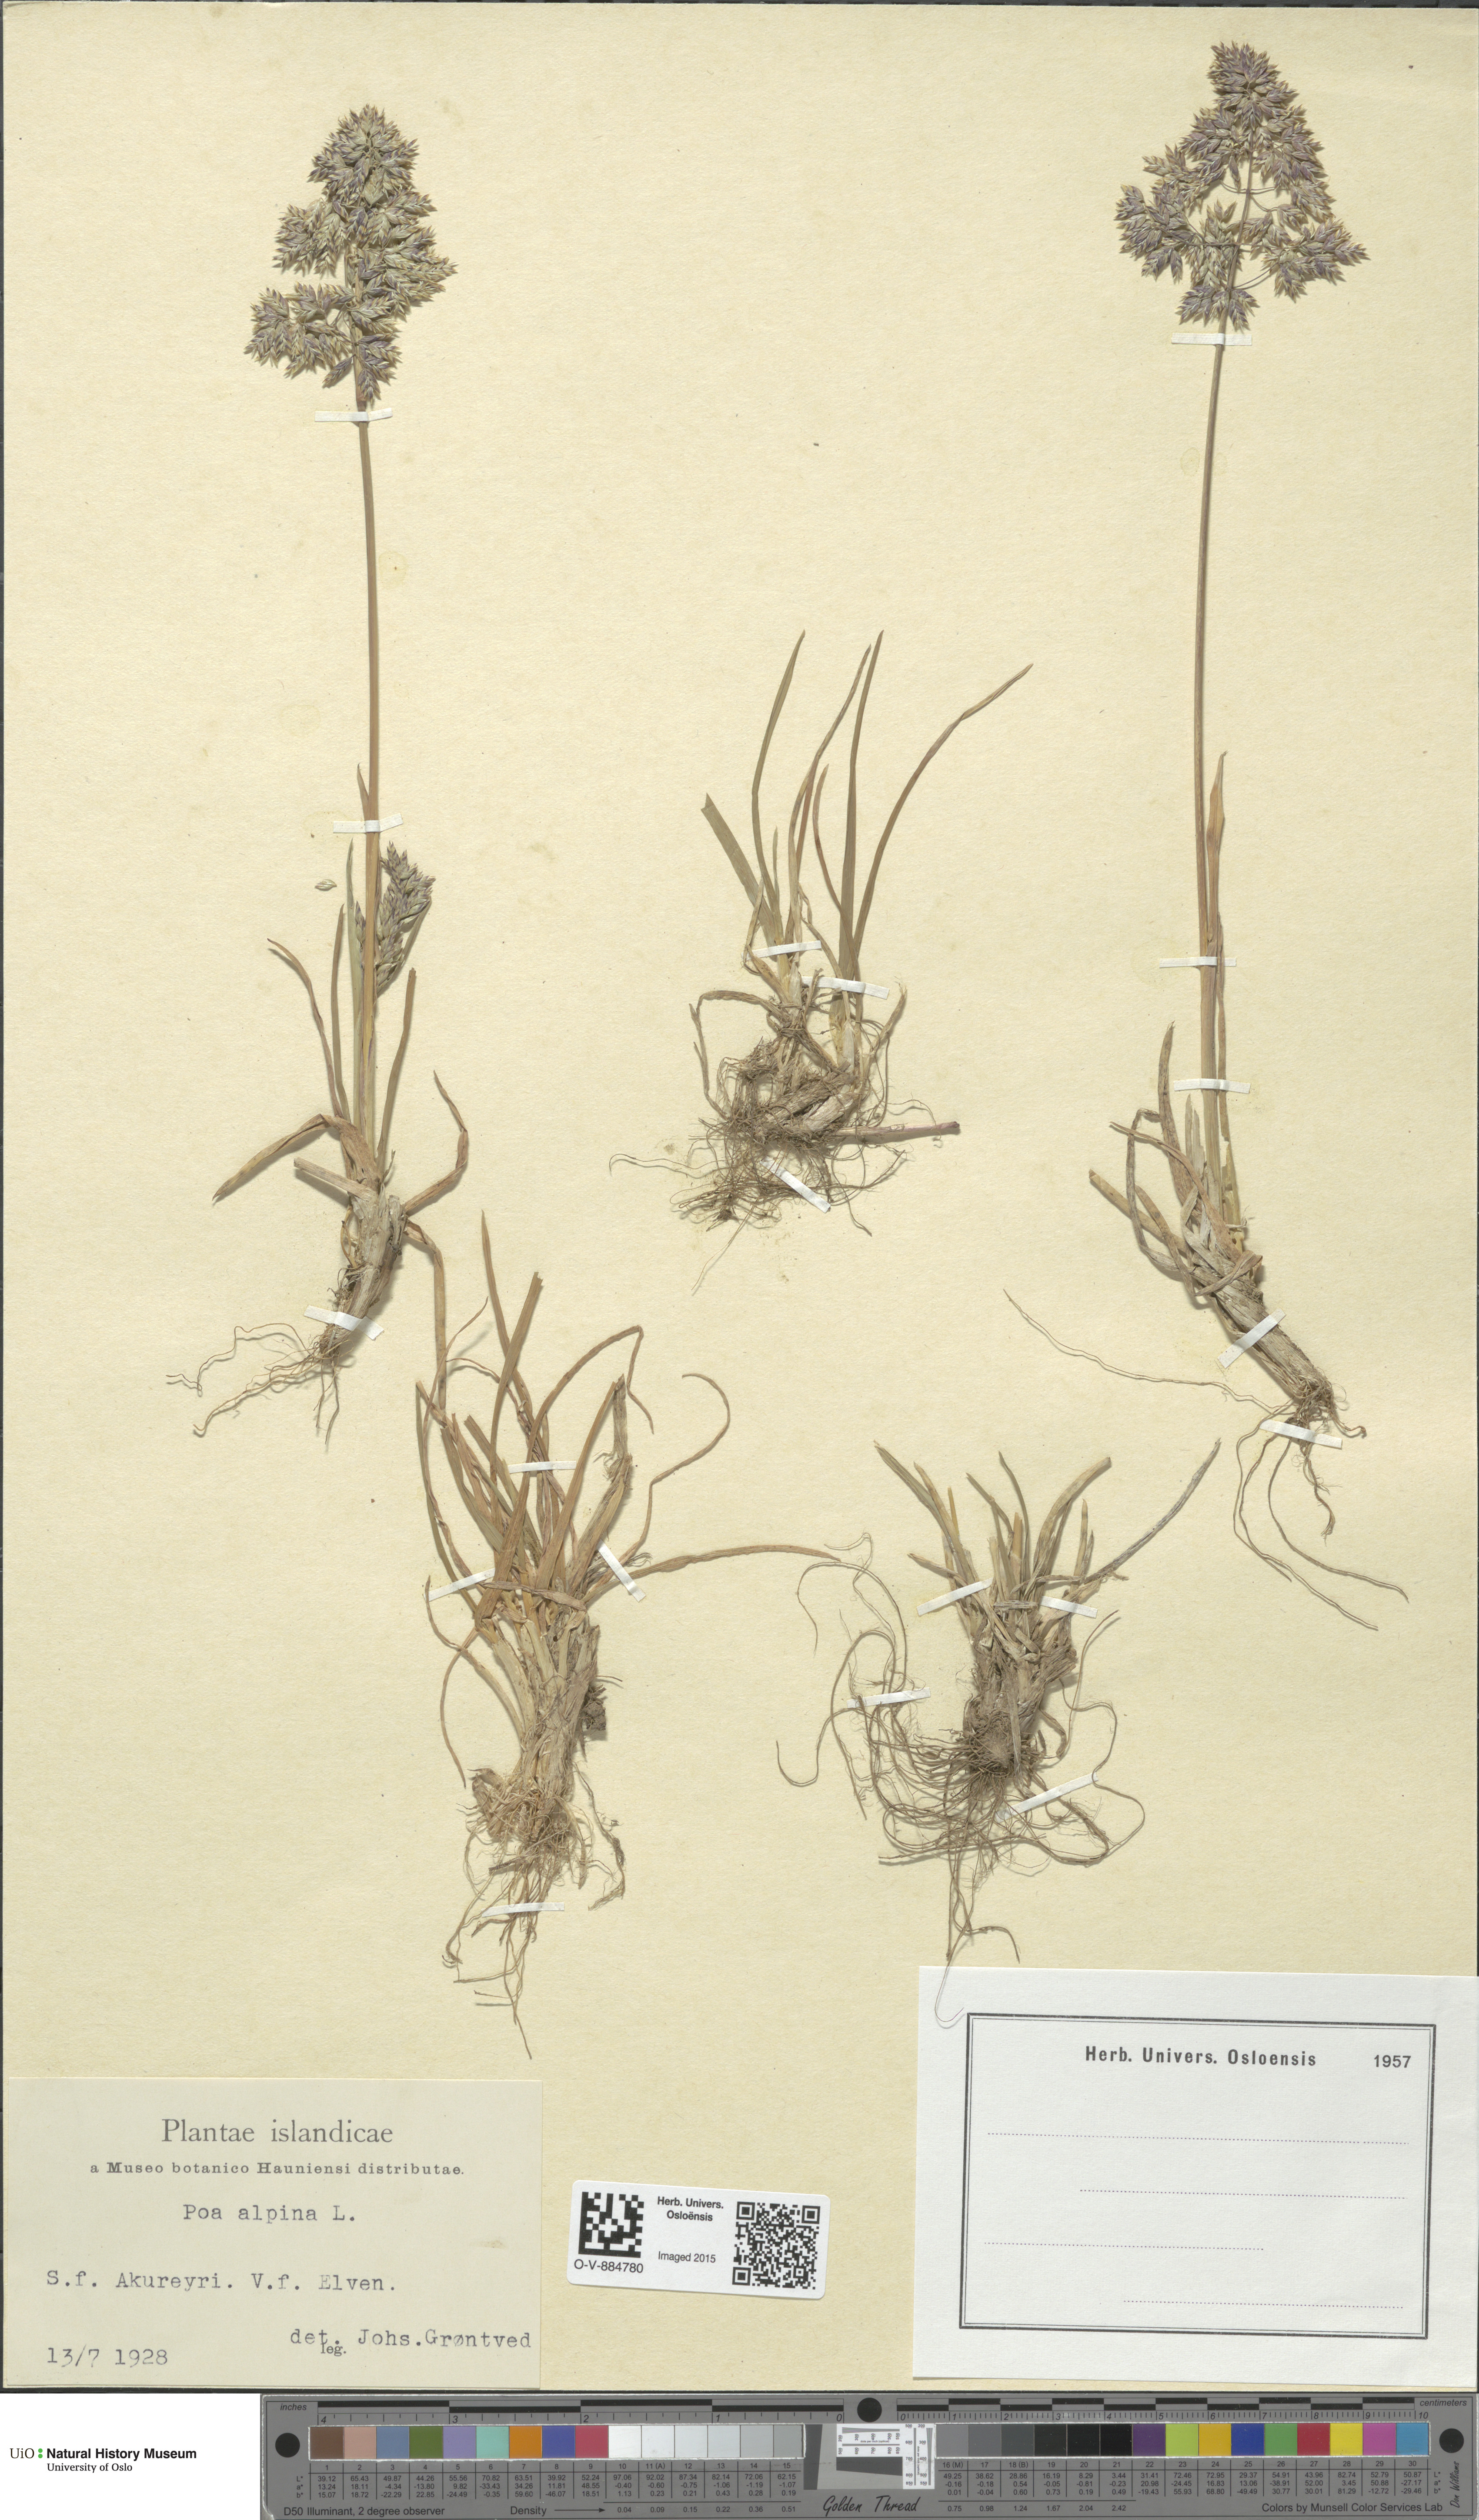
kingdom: Plantae
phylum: Tracheophyta
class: Liliopsida
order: Poales
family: Poaceae
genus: Poa
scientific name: Poa alpina
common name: Alpine bluegrass
